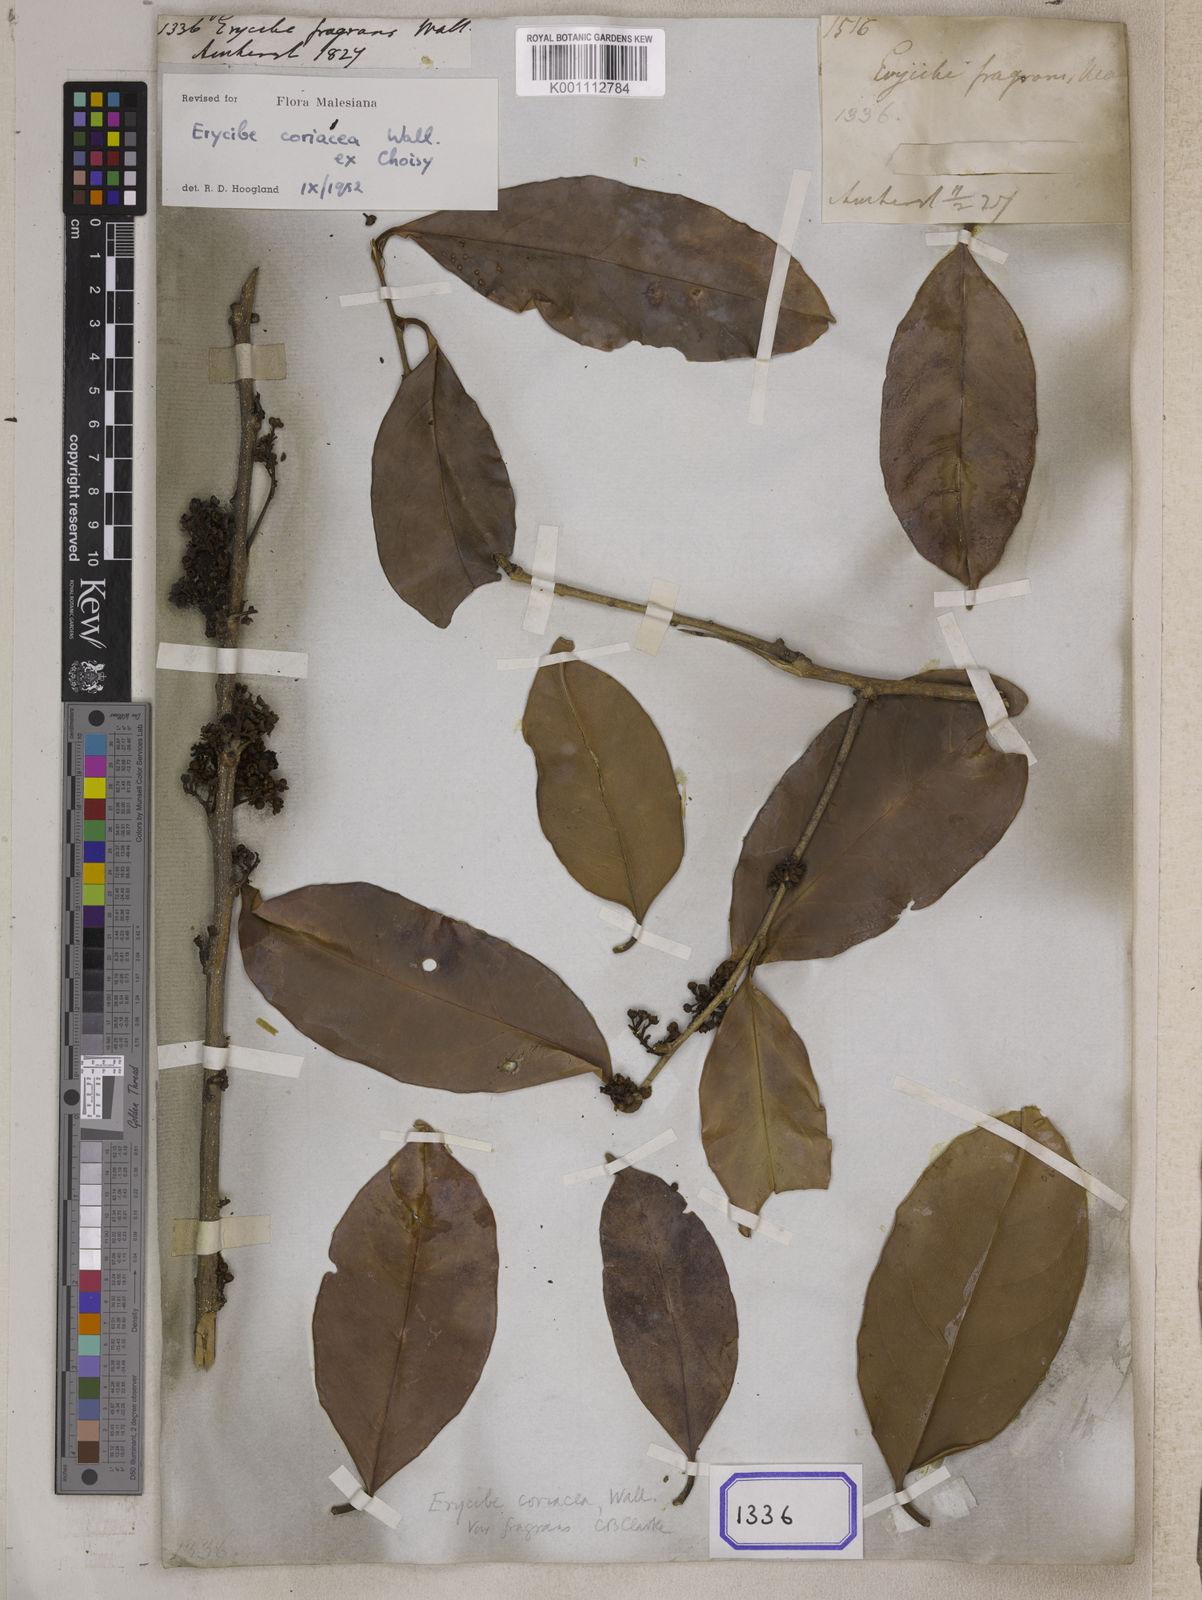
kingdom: Plantae
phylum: Tracheophyta
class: Magnoliopsida
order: Solanales
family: Convolvulaceae
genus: Erycibe
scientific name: Erycibe
